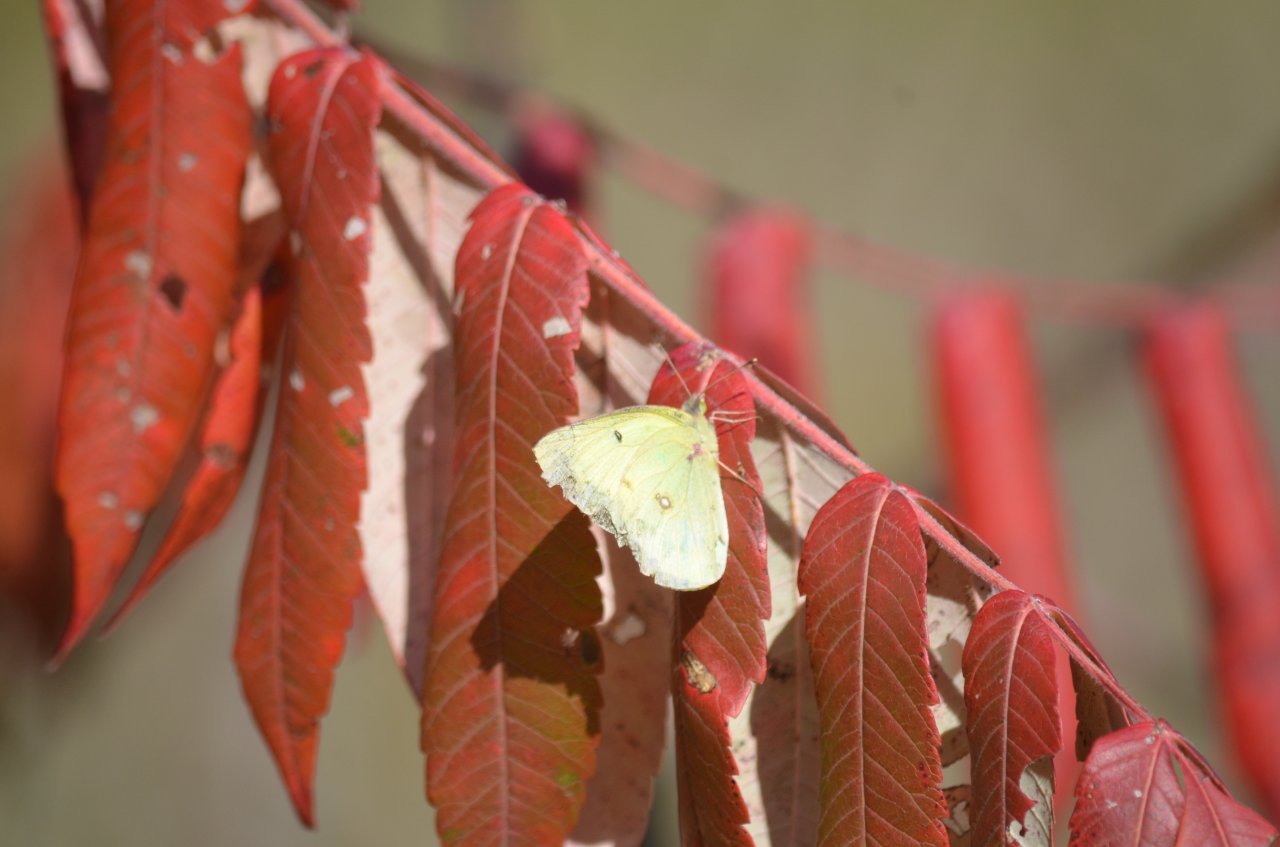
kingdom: Animalia
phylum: Arthropoda
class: Insecta
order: Lepidoptera
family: Pieridae
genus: Colias
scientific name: Colias philodice
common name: Clouded Sulphur
